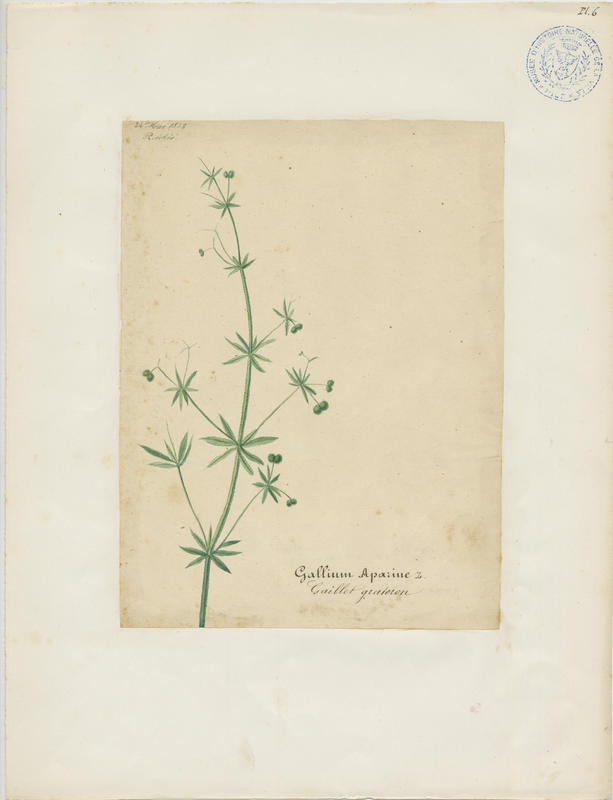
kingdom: Plantae
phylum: Tracheophyta
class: Magnoliopsida
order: Gentianales
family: Rubiaceae
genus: Galium
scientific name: Galium aparine
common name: Cleavers
